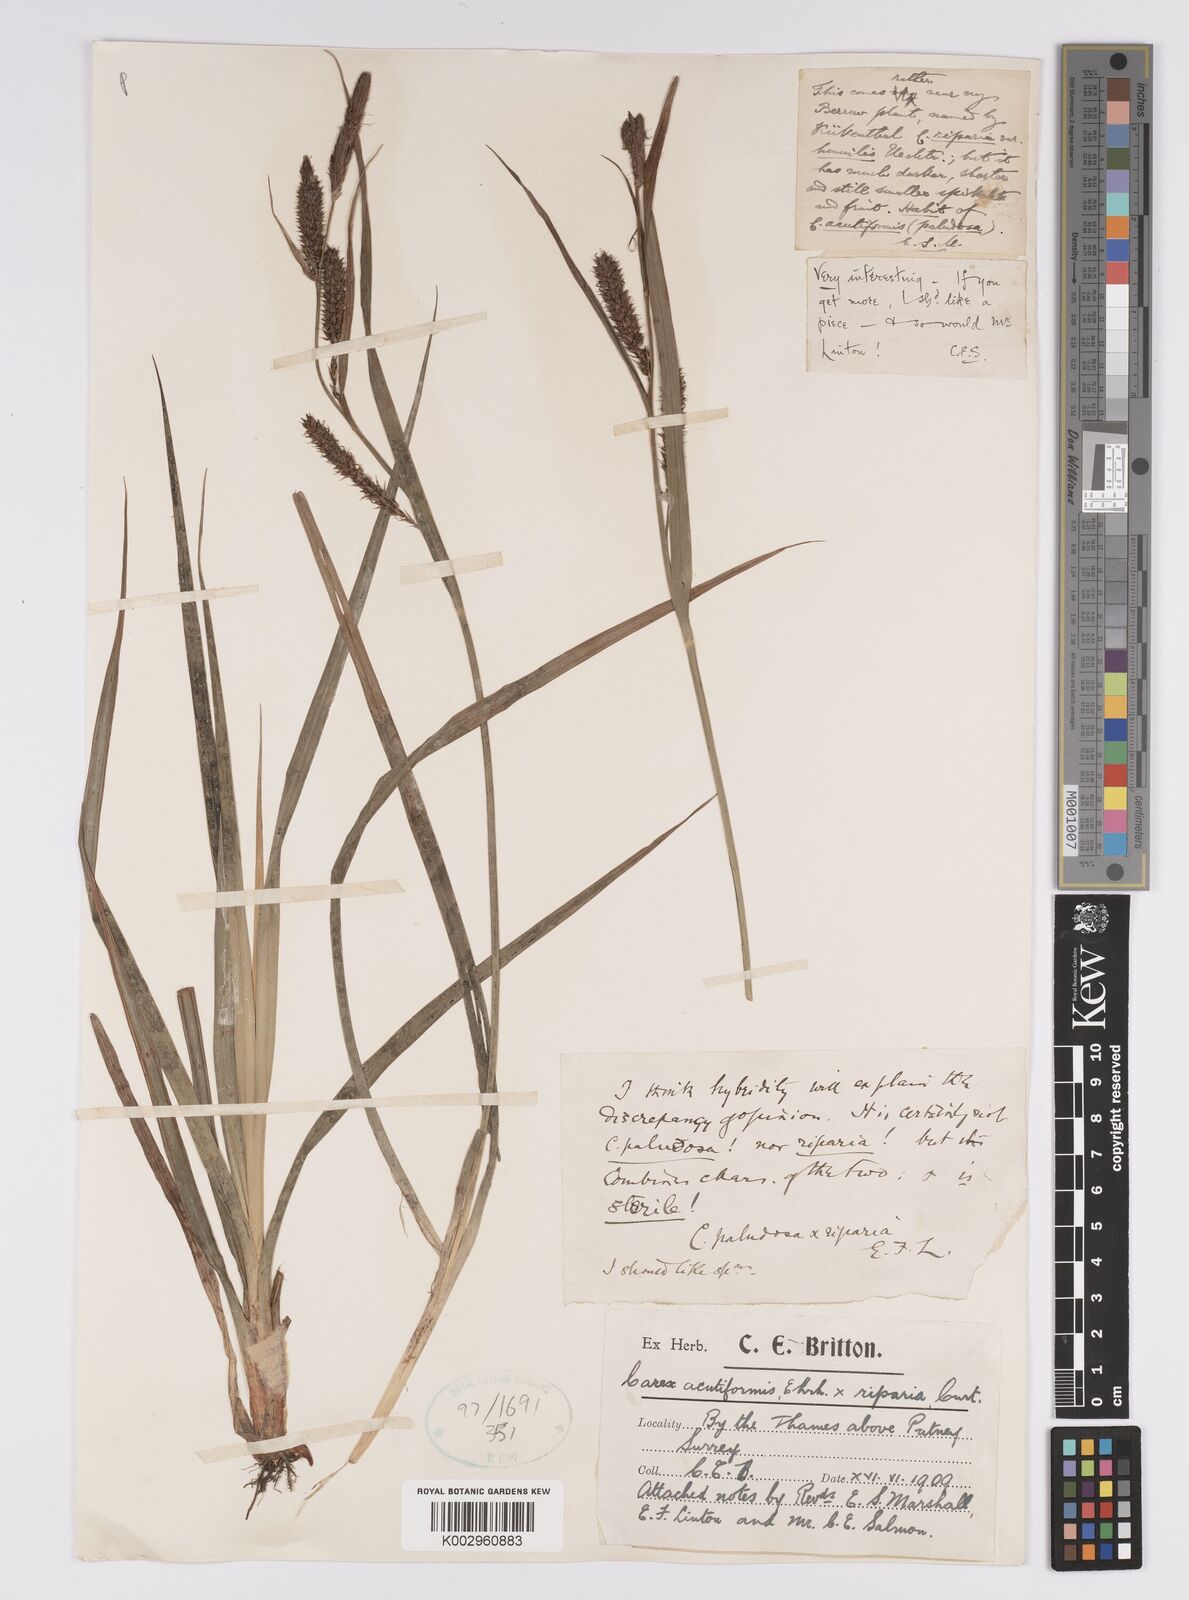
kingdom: Plantae
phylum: Tracheophyta
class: Liliopsida
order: Poales
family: Cyperaceae
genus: Carex
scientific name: Carex acutiformis
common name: Lesser pond-sedge
